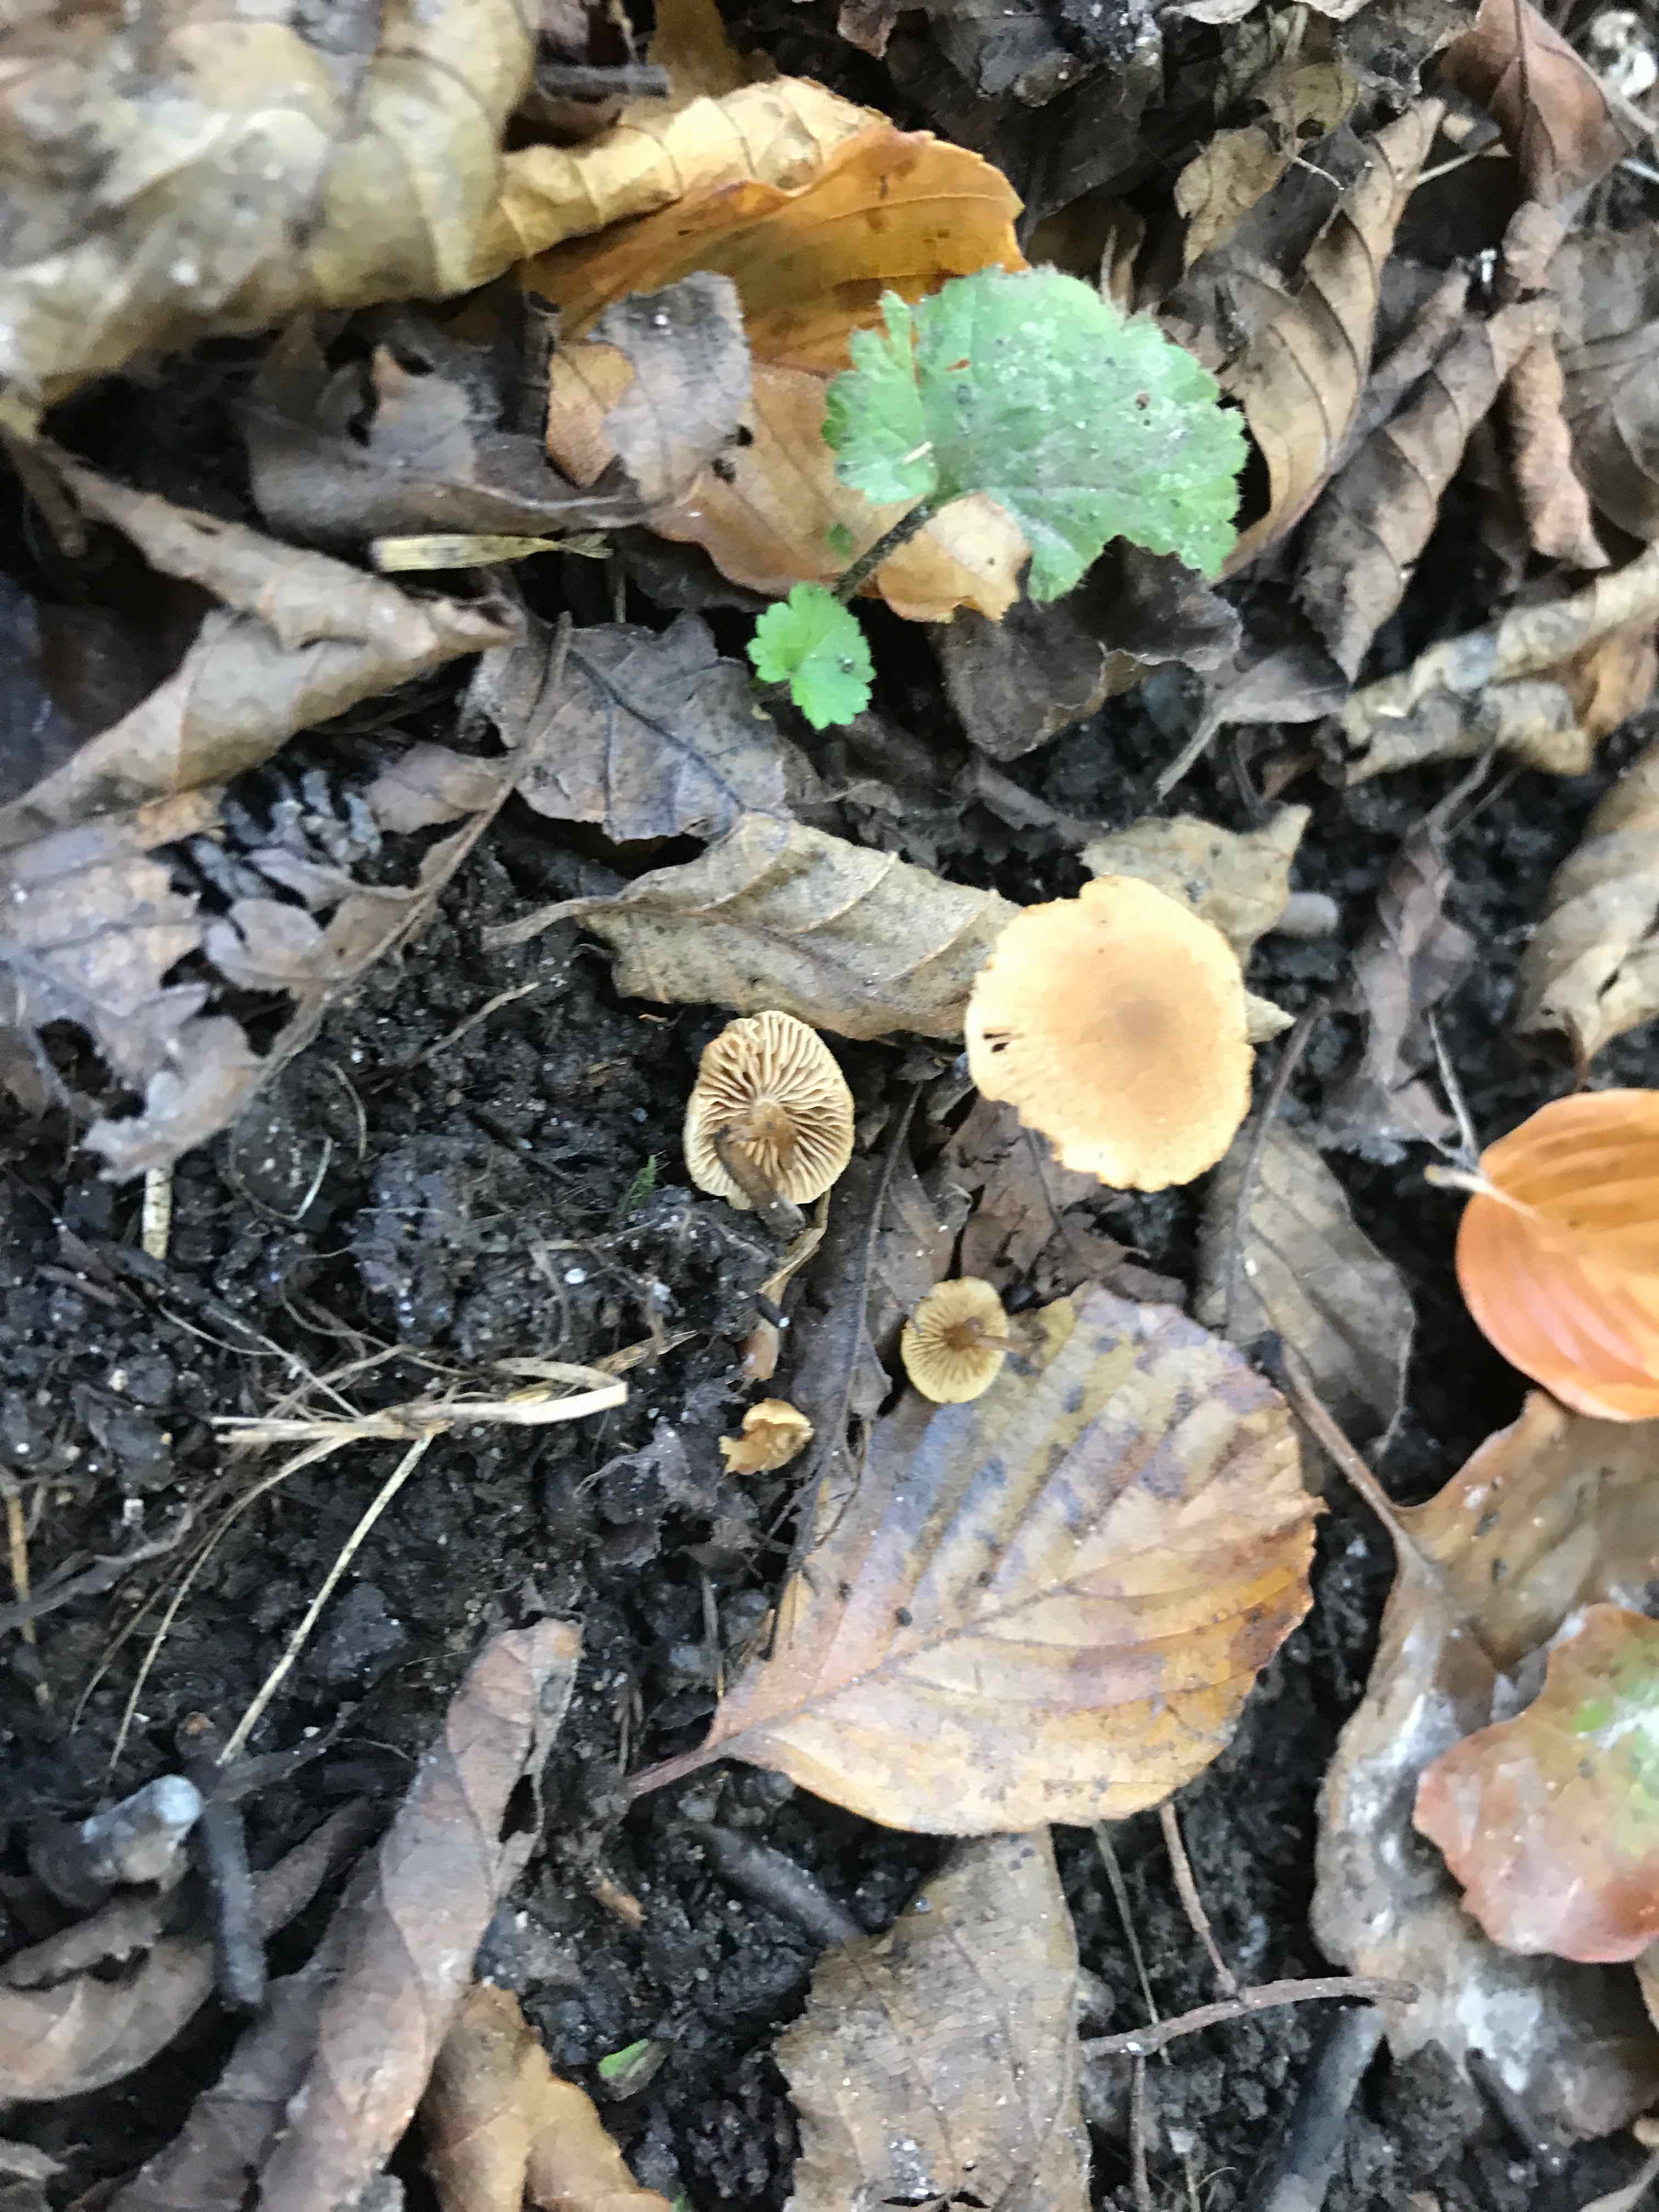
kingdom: Fungi
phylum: Basidiomycota
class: Agaricomycetes
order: Agaricales
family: Hymenogastraceae
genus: Naucoria
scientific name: Naucoria escharioides
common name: lys elle-knaphat
